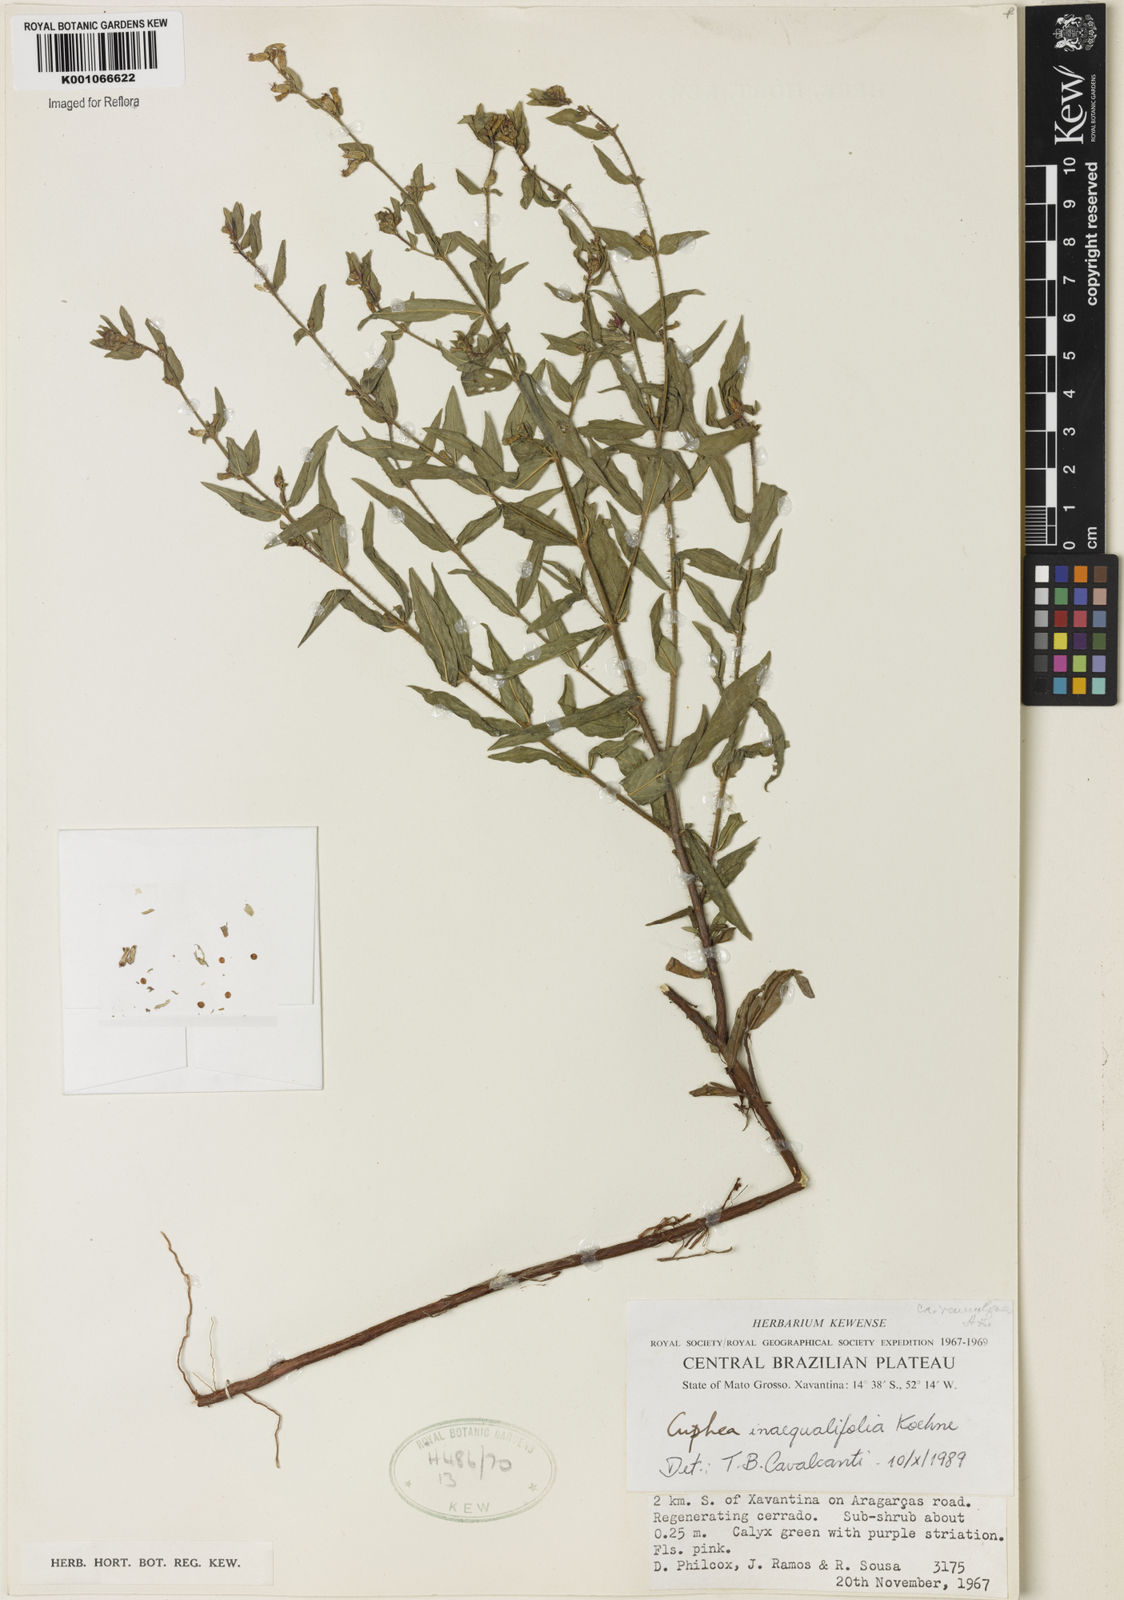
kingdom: Plantae
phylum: Tracheophyta
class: Magnoliopsida
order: Myrtales
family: Lythraceae
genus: Cuphea
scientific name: Cuphea inaequalifolia
